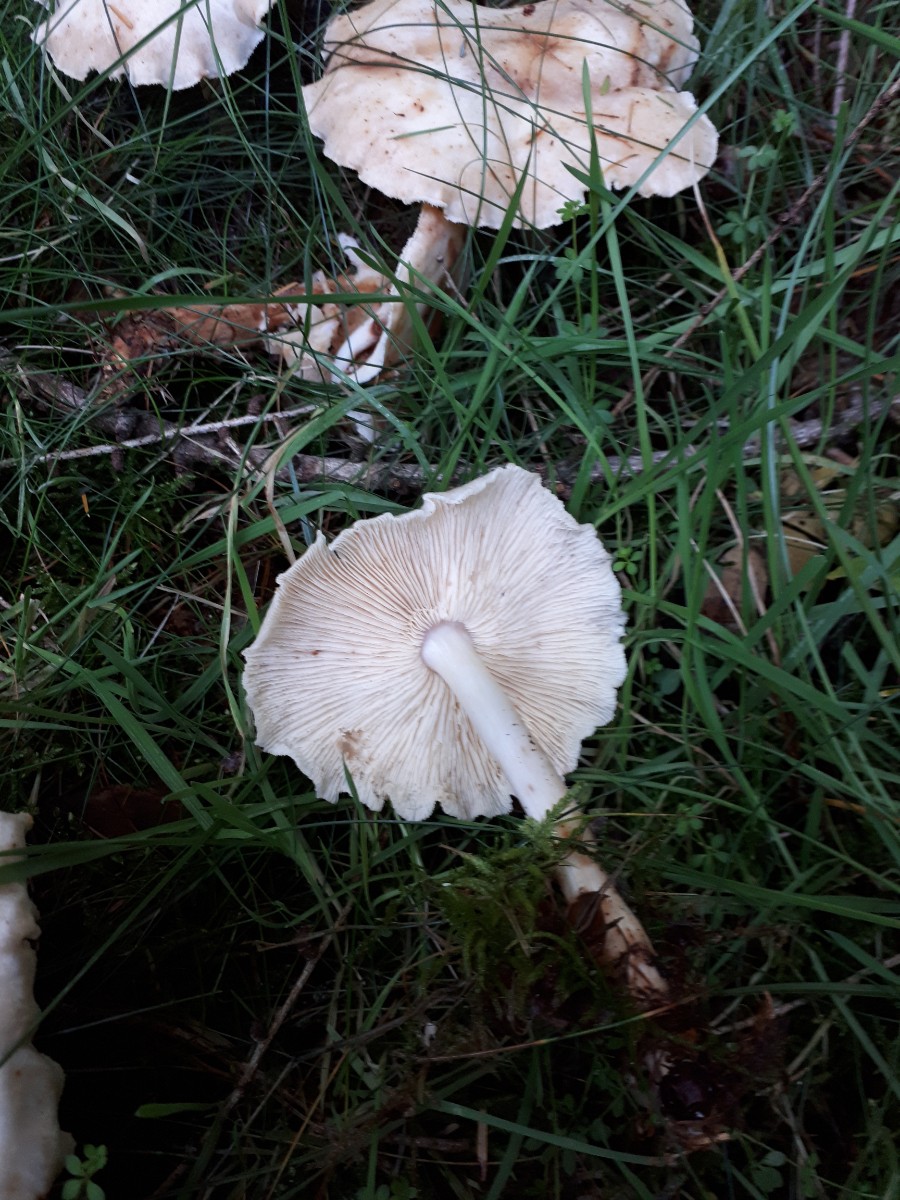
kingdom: Fungi
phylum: Basidiomycota
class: Agaricomycetes
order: Agaricales
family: Omphalotaceae
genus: Rhodocollybia
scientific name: Rhodocollybia maculata
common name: plettet fladhat
